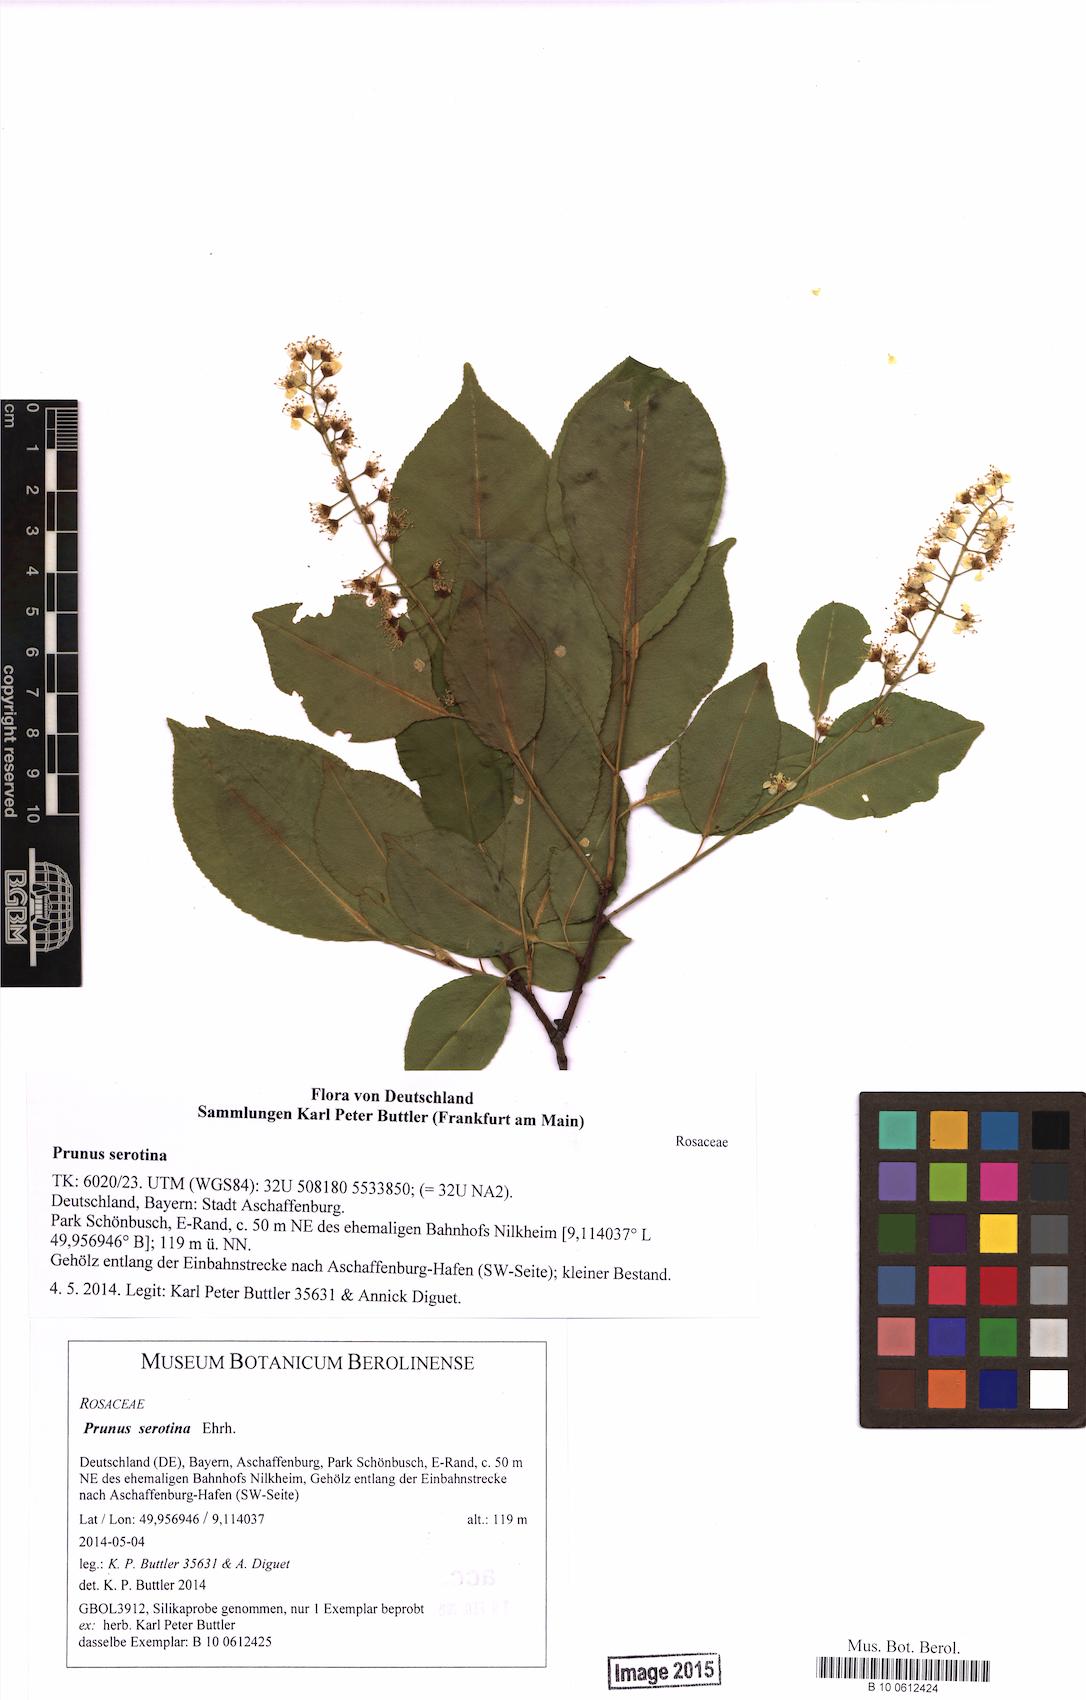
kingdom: Plantae
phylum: Tracheophyta
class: Magnoliopsida
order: Rosales
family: Rosaceae
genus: Prunus
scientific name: Prunus serotina
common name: Black cherry
